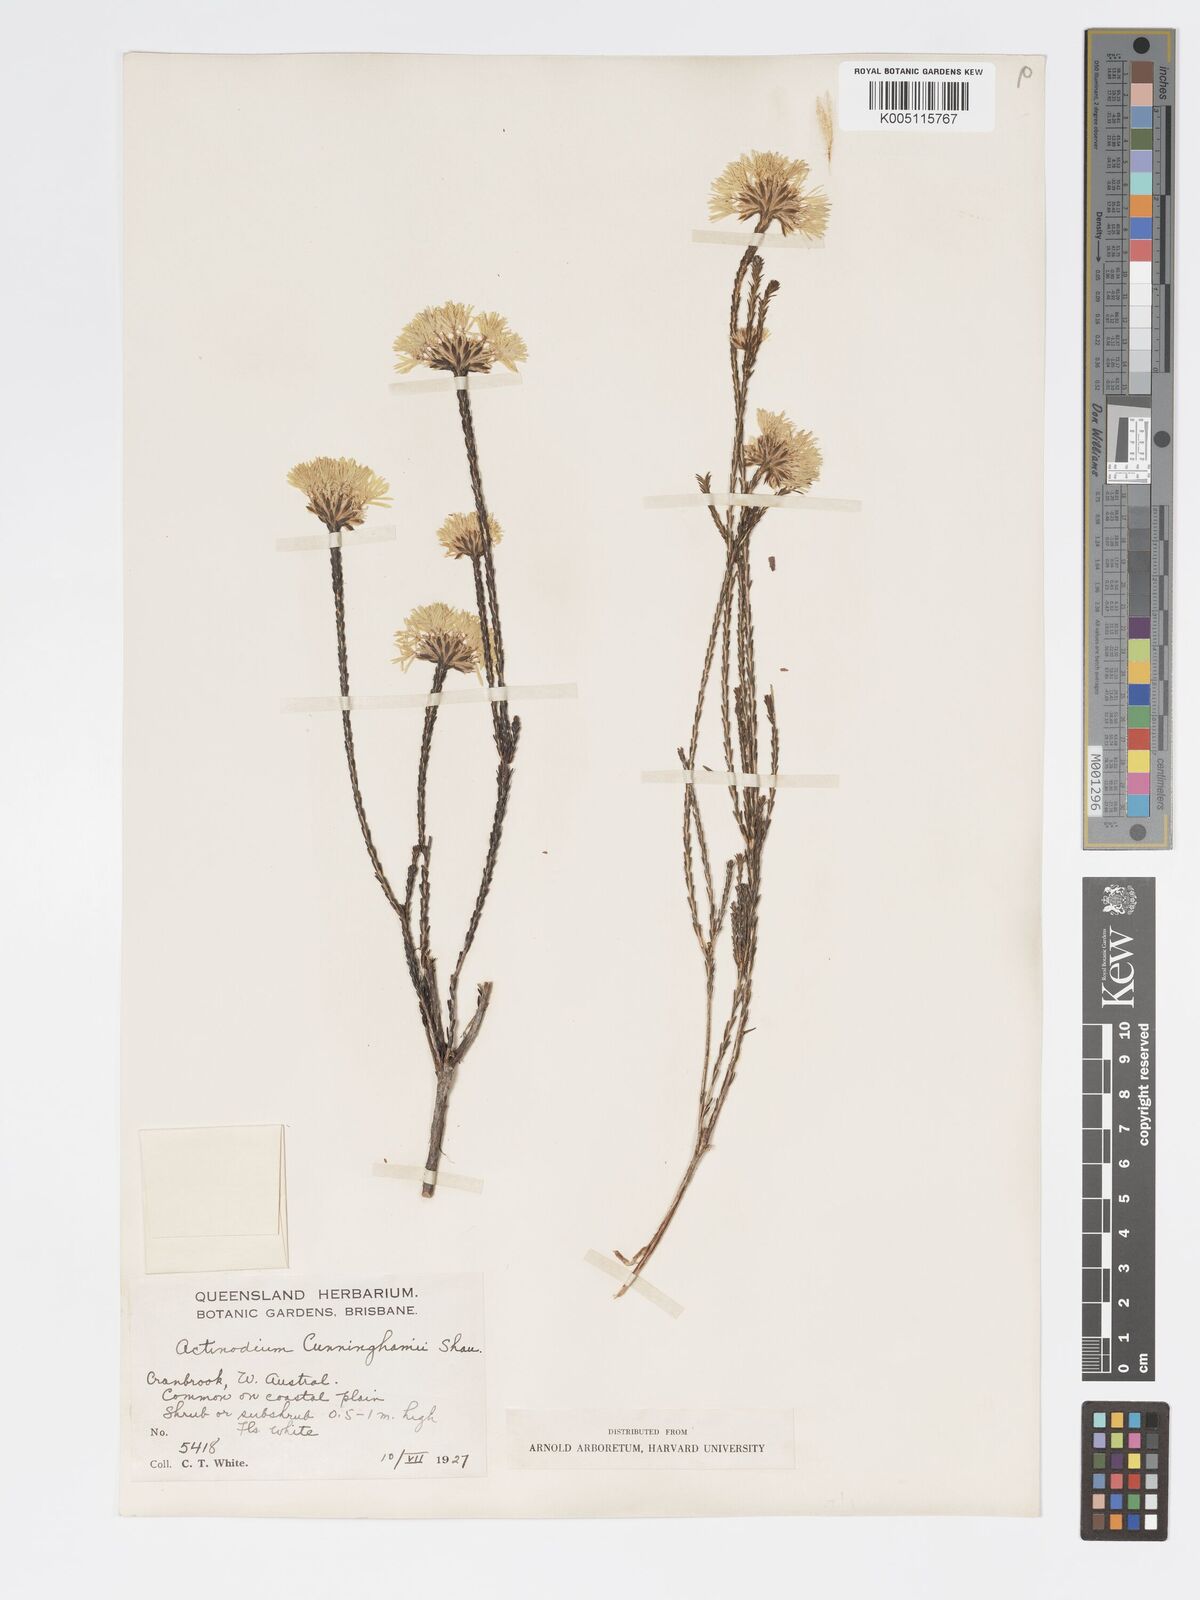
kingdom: Plantae
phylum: Tracheophyta
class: Magnoliopsida
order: Myrtales
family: Myrtaceae
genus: Actinodium
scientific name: Actinodium cunninghamii
